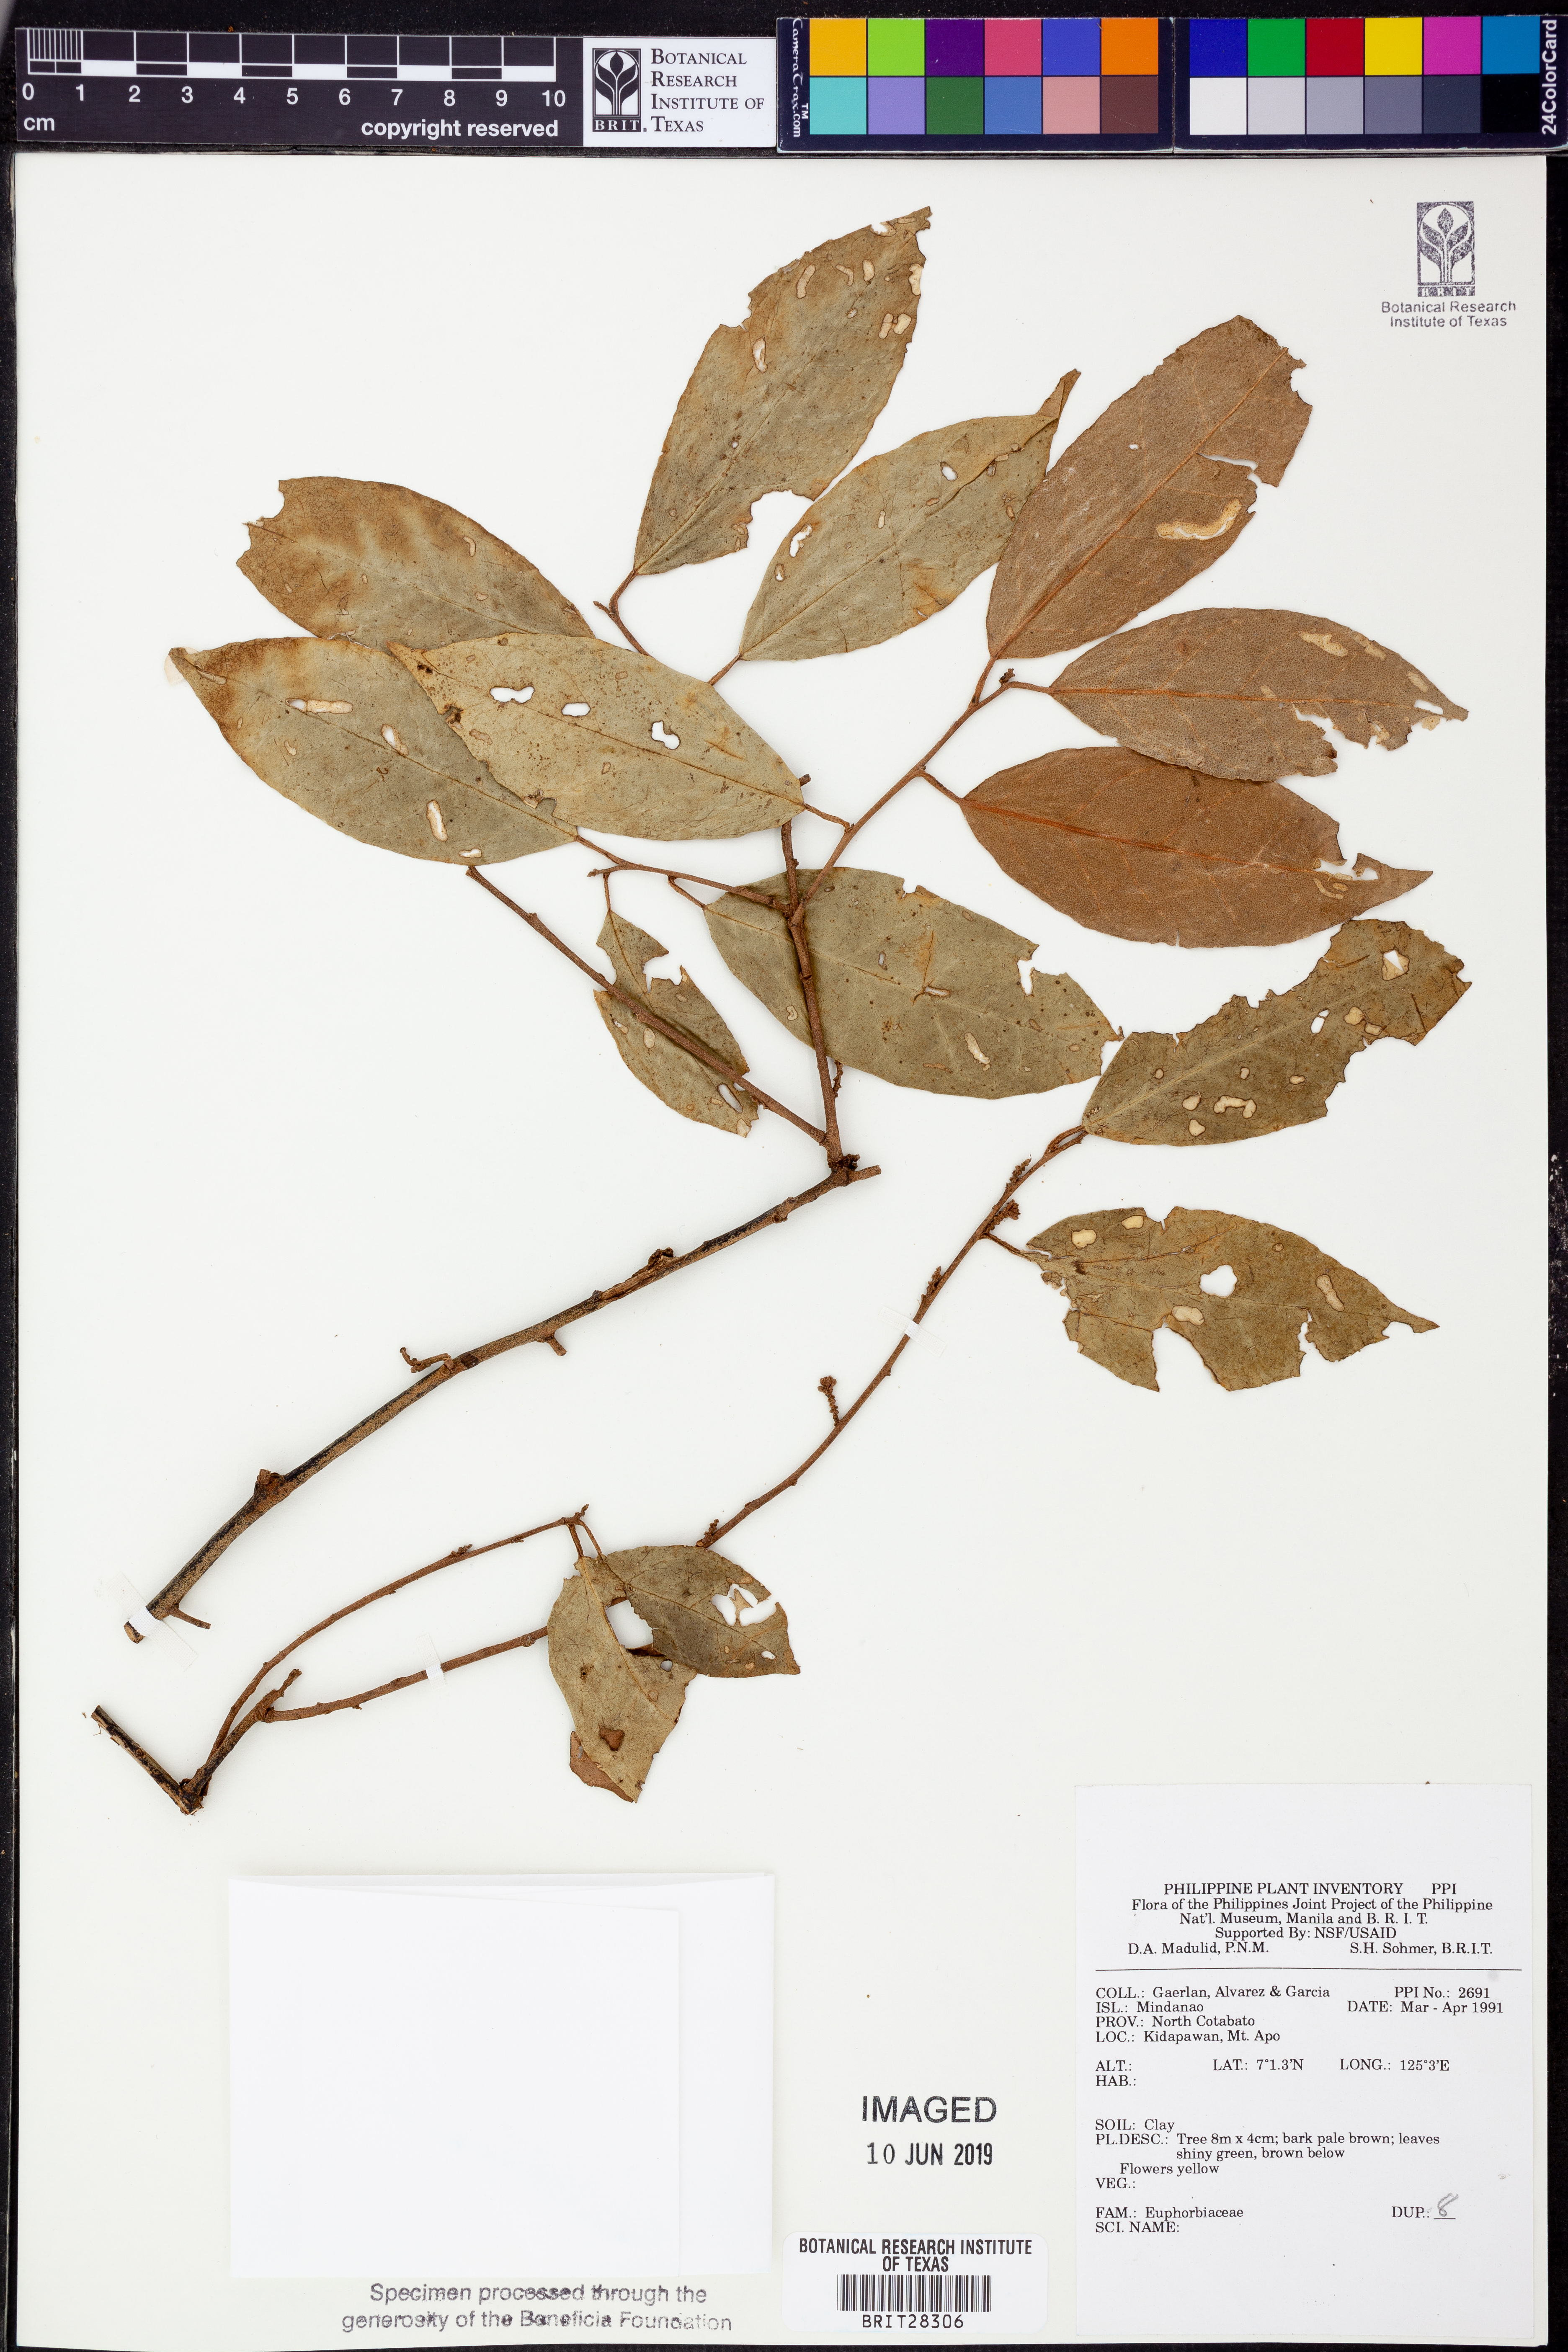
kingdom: Plantae
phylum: Tracheophyta
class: Magnoliopsida
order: Malpighiales
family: Euphorbiaceae
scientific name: Euphorbiaceae
